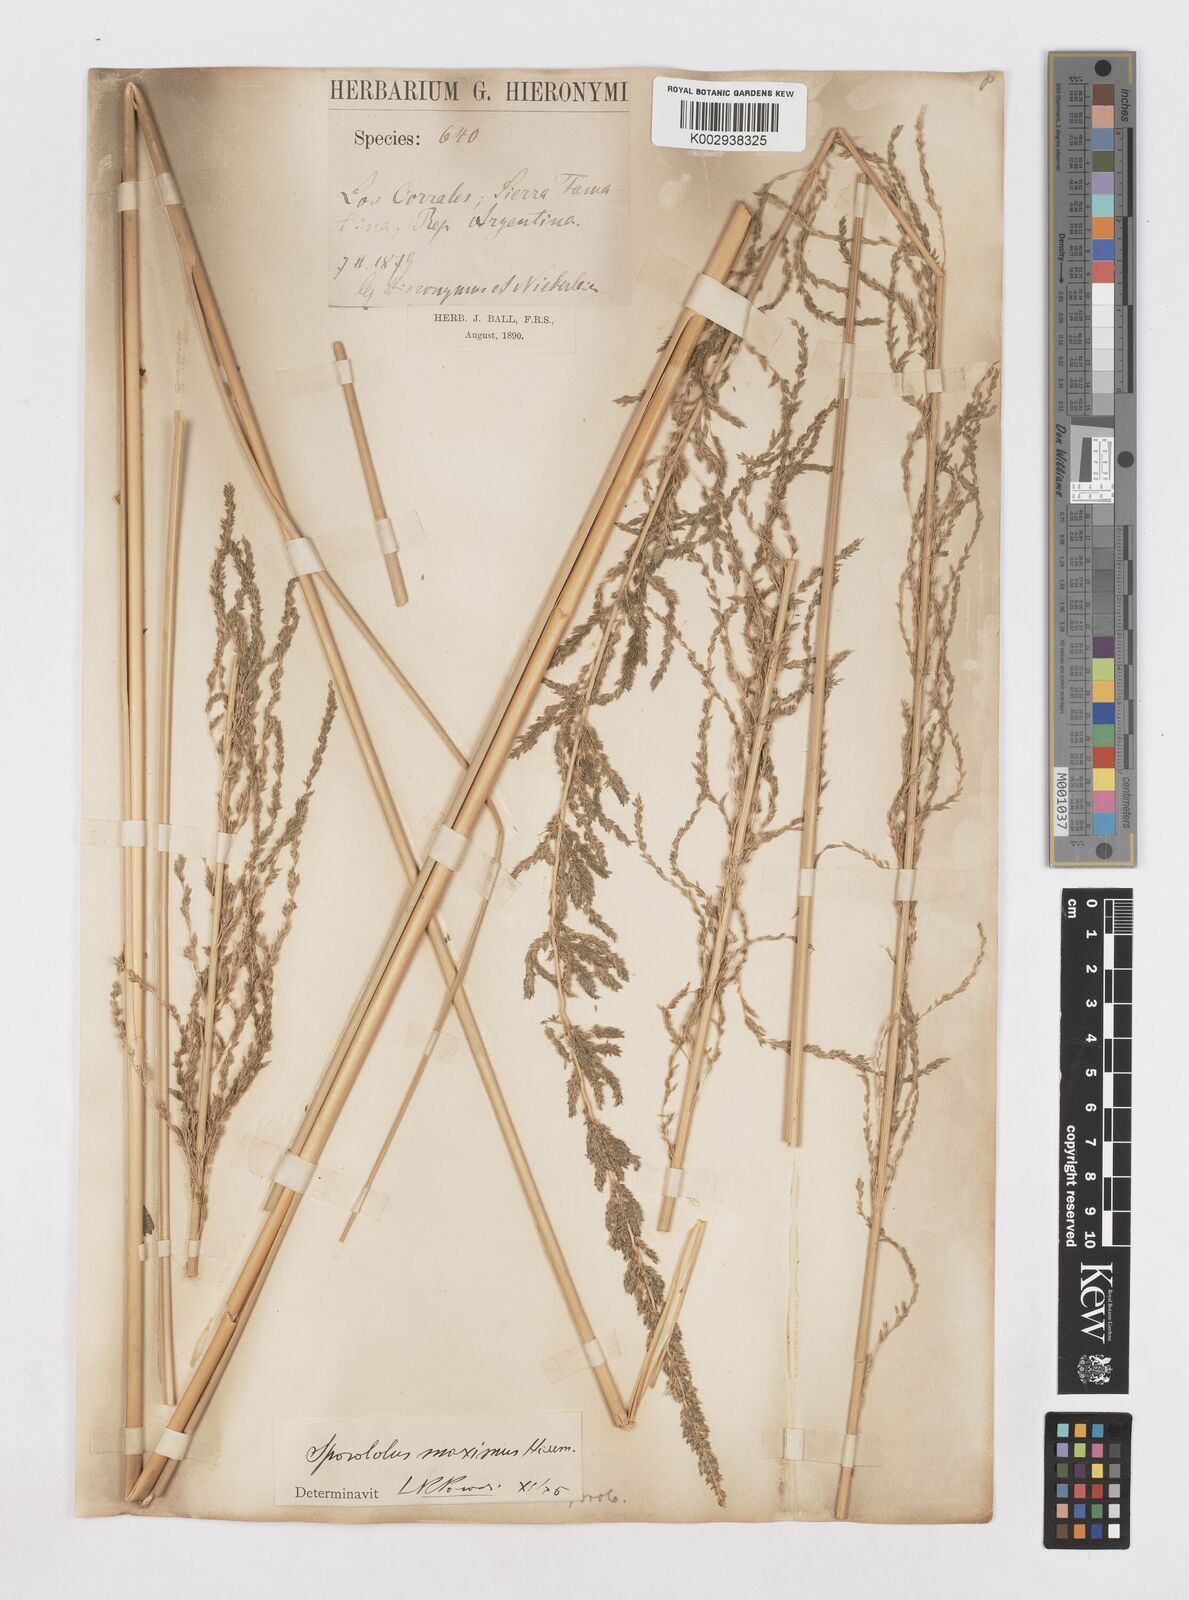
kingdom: Plantae
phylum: Tracheophyta
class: Liliopsida
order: Poales
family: Poaceae
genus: Sporobolus
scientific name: Sporobolus maximus
